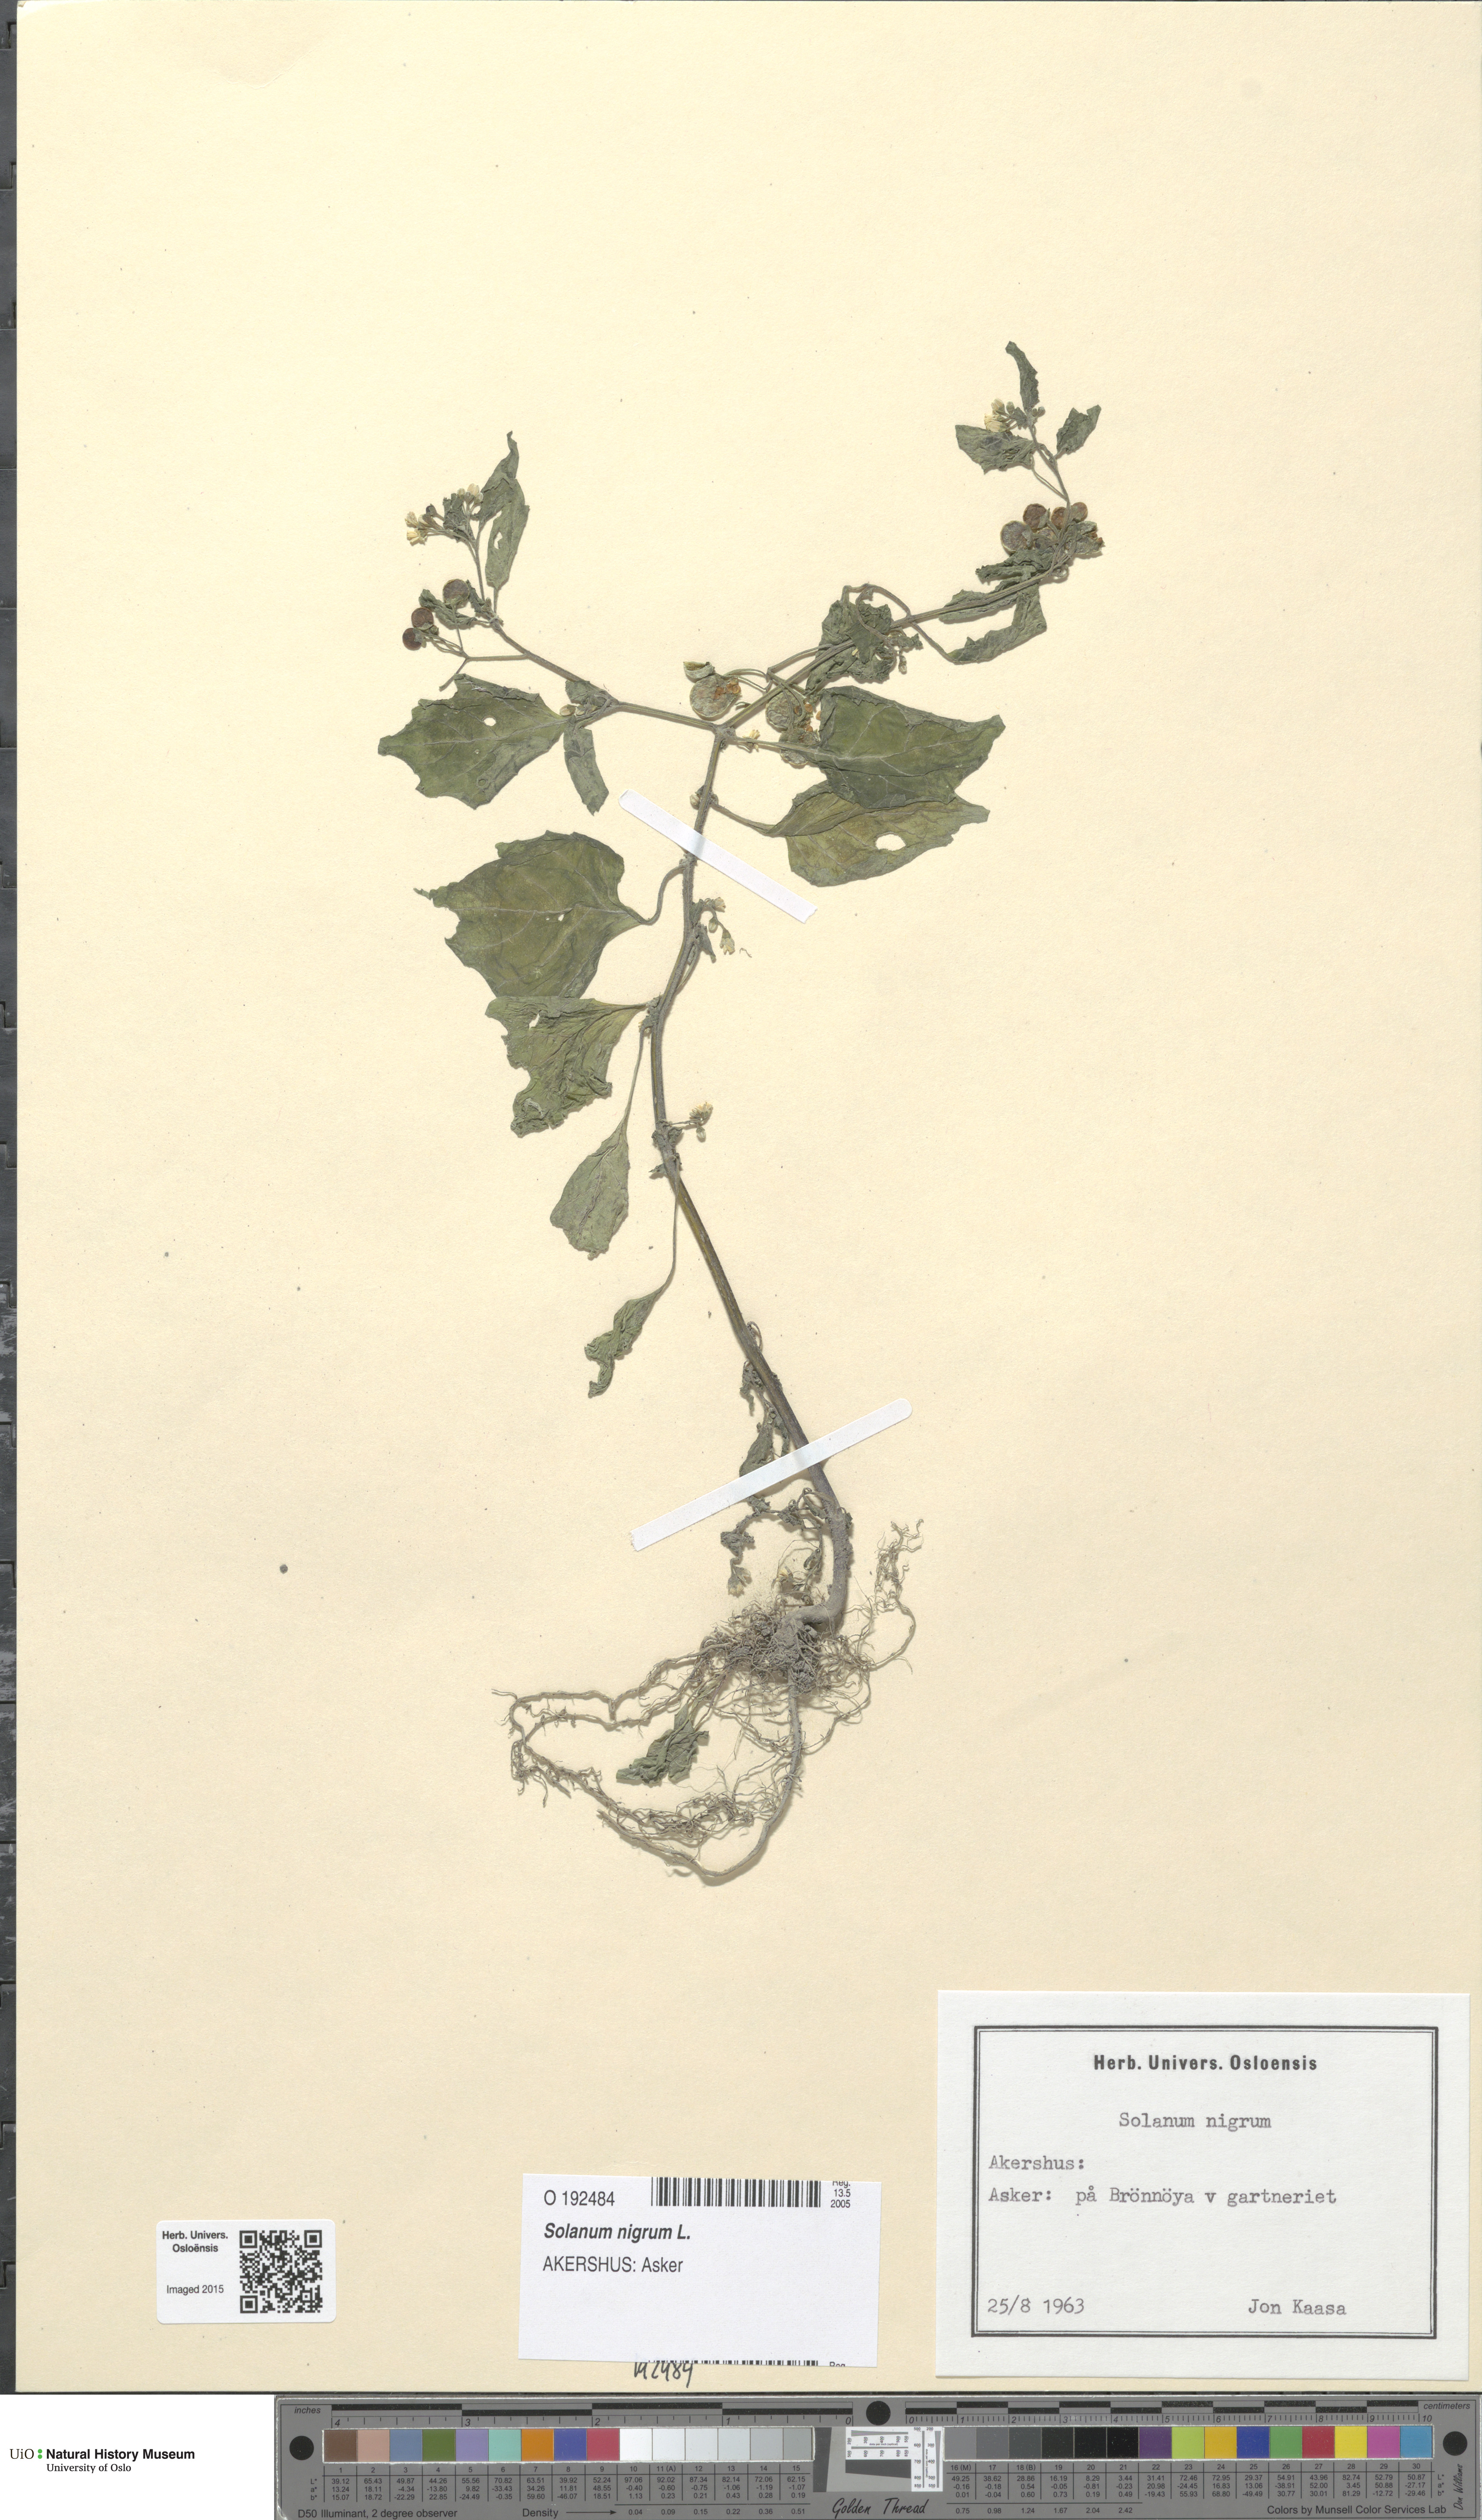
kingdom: Plantae
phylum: Tracheophyta
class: Magnoliopsida
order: Solanales
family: Solanaceae
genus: Solanum
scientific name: Solanum nigrum
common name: Black nightshade
